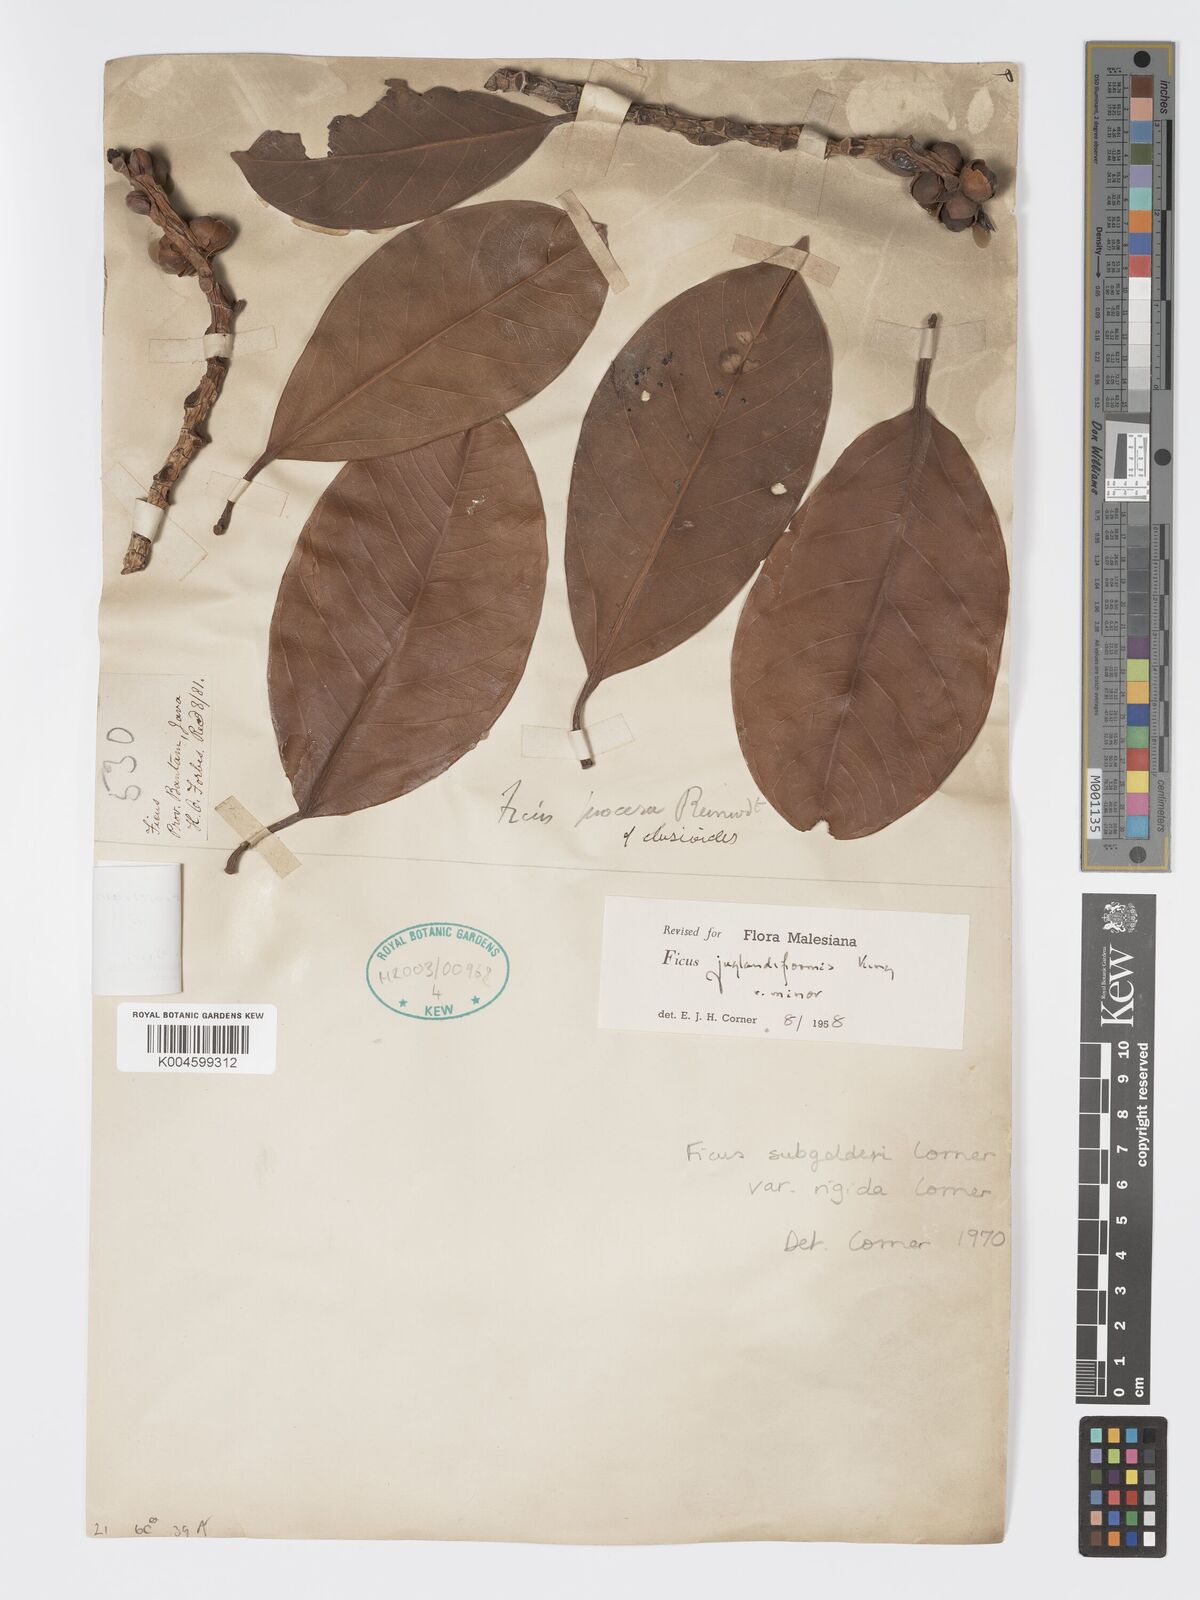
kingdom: Plantae
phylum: Tracheophyta
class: Magnoliopsida
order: Rosales
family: Moraceae
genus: Ficus
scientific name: Ficus crassiramea
